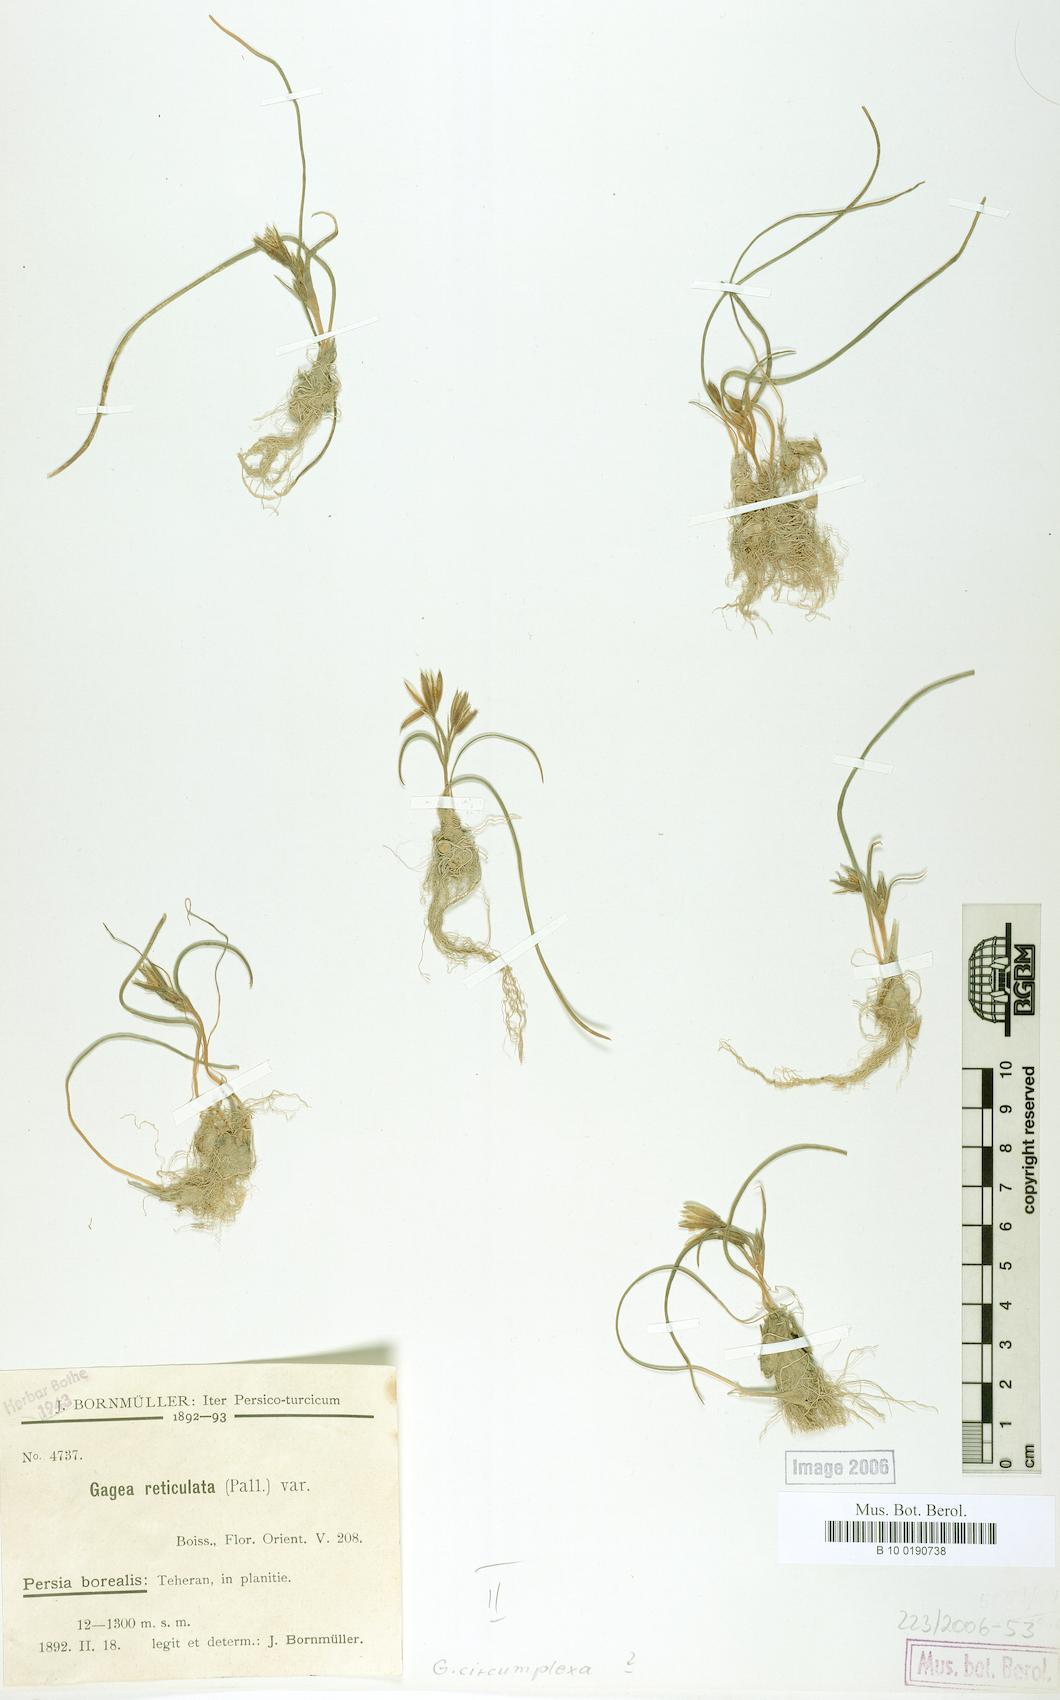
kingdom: Plantae
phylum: Tracheophyta
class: Liliopsida
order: Liliales
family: Liliaceae
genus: Gagea
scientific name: Gagea reticulata
